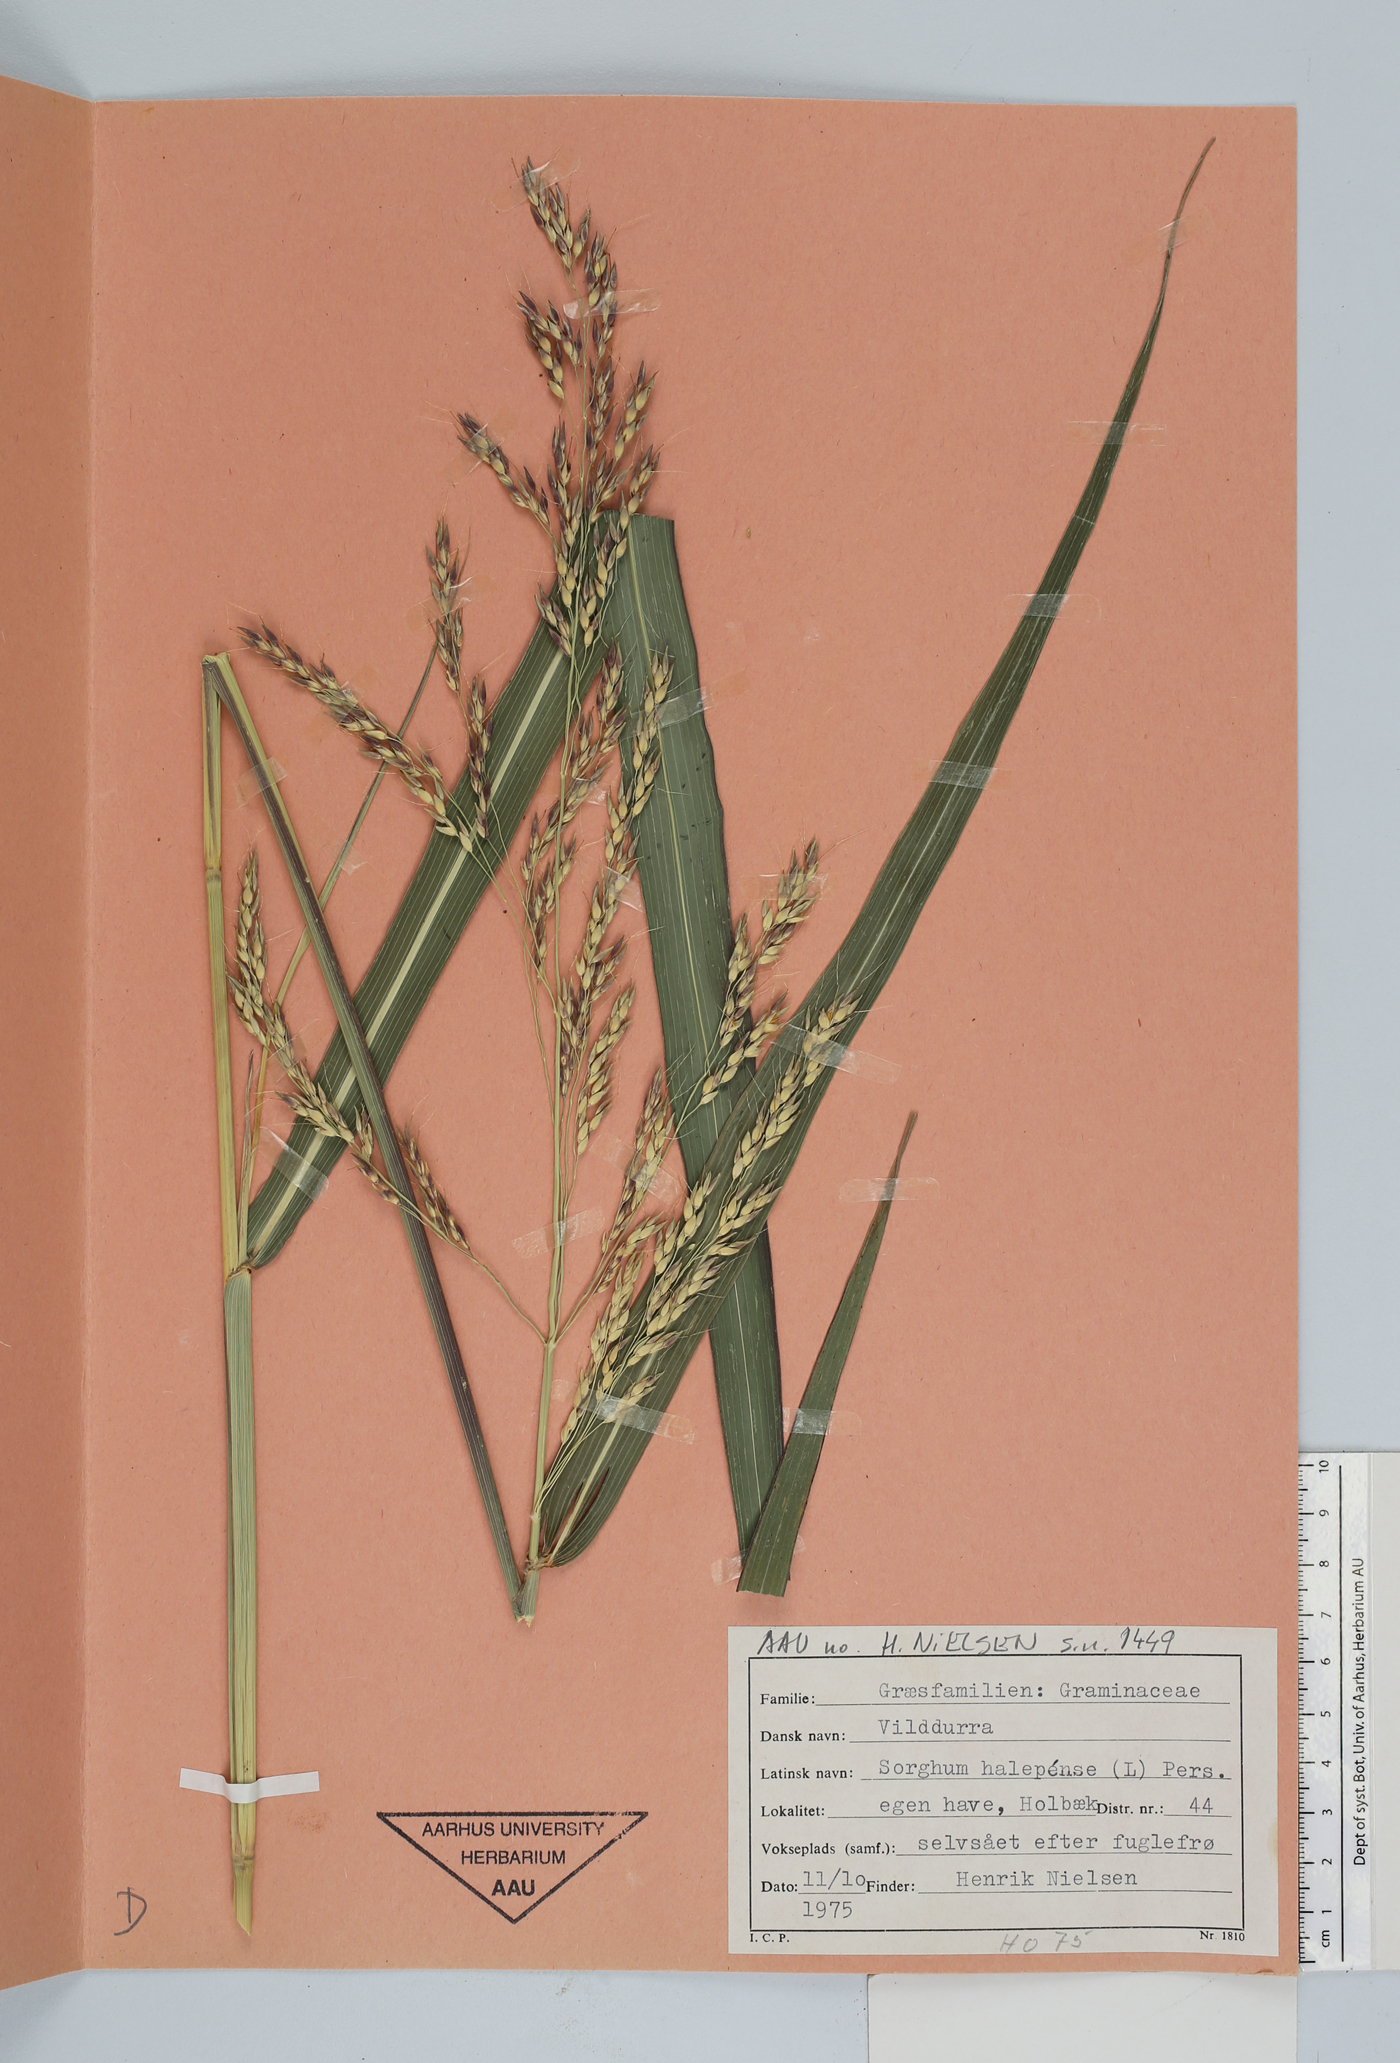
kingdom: Plantae
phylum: Tracheophyta
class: Liliopsida
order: Poales
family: Poaceae
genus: Sorghum
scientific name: Sorghum halepense
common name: Johnson-grass
